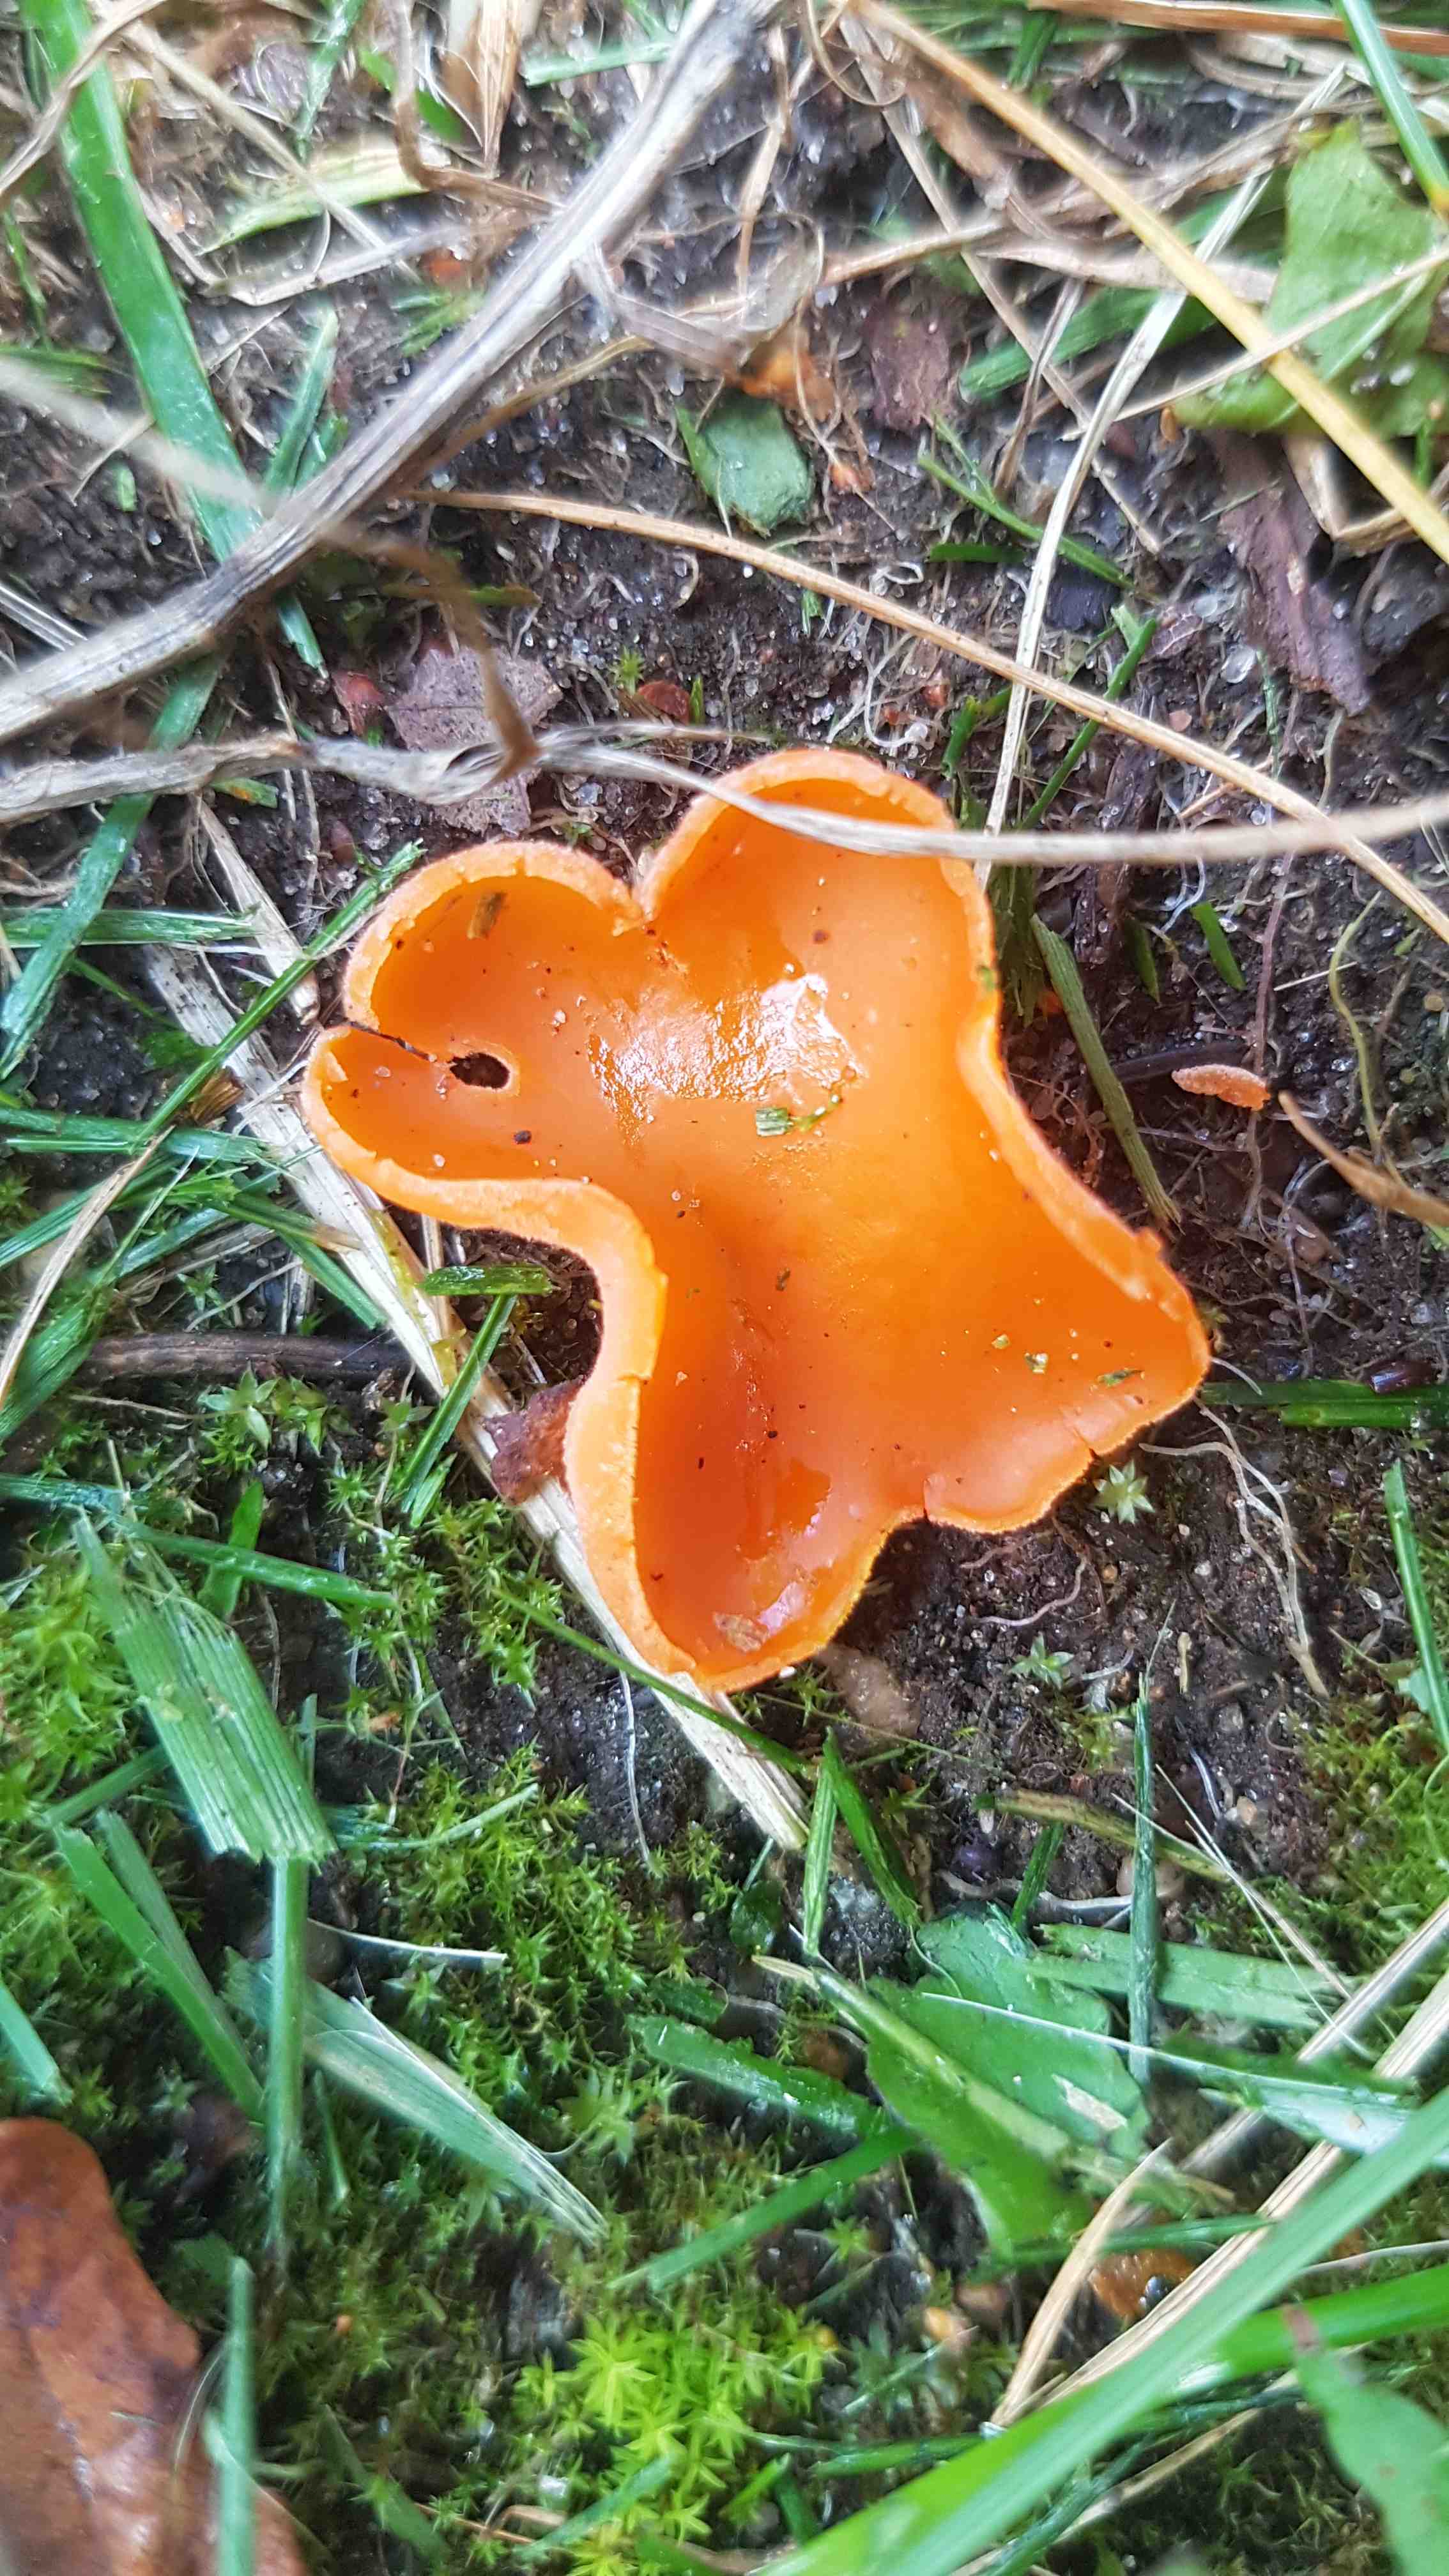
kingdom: Fungi
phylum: Ascomycota
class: Pezizomycetes
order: Pezizales
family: Pyronemataceae
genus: Aleuria
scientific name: Aleuria aurantia
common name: almindelig orangebæger
